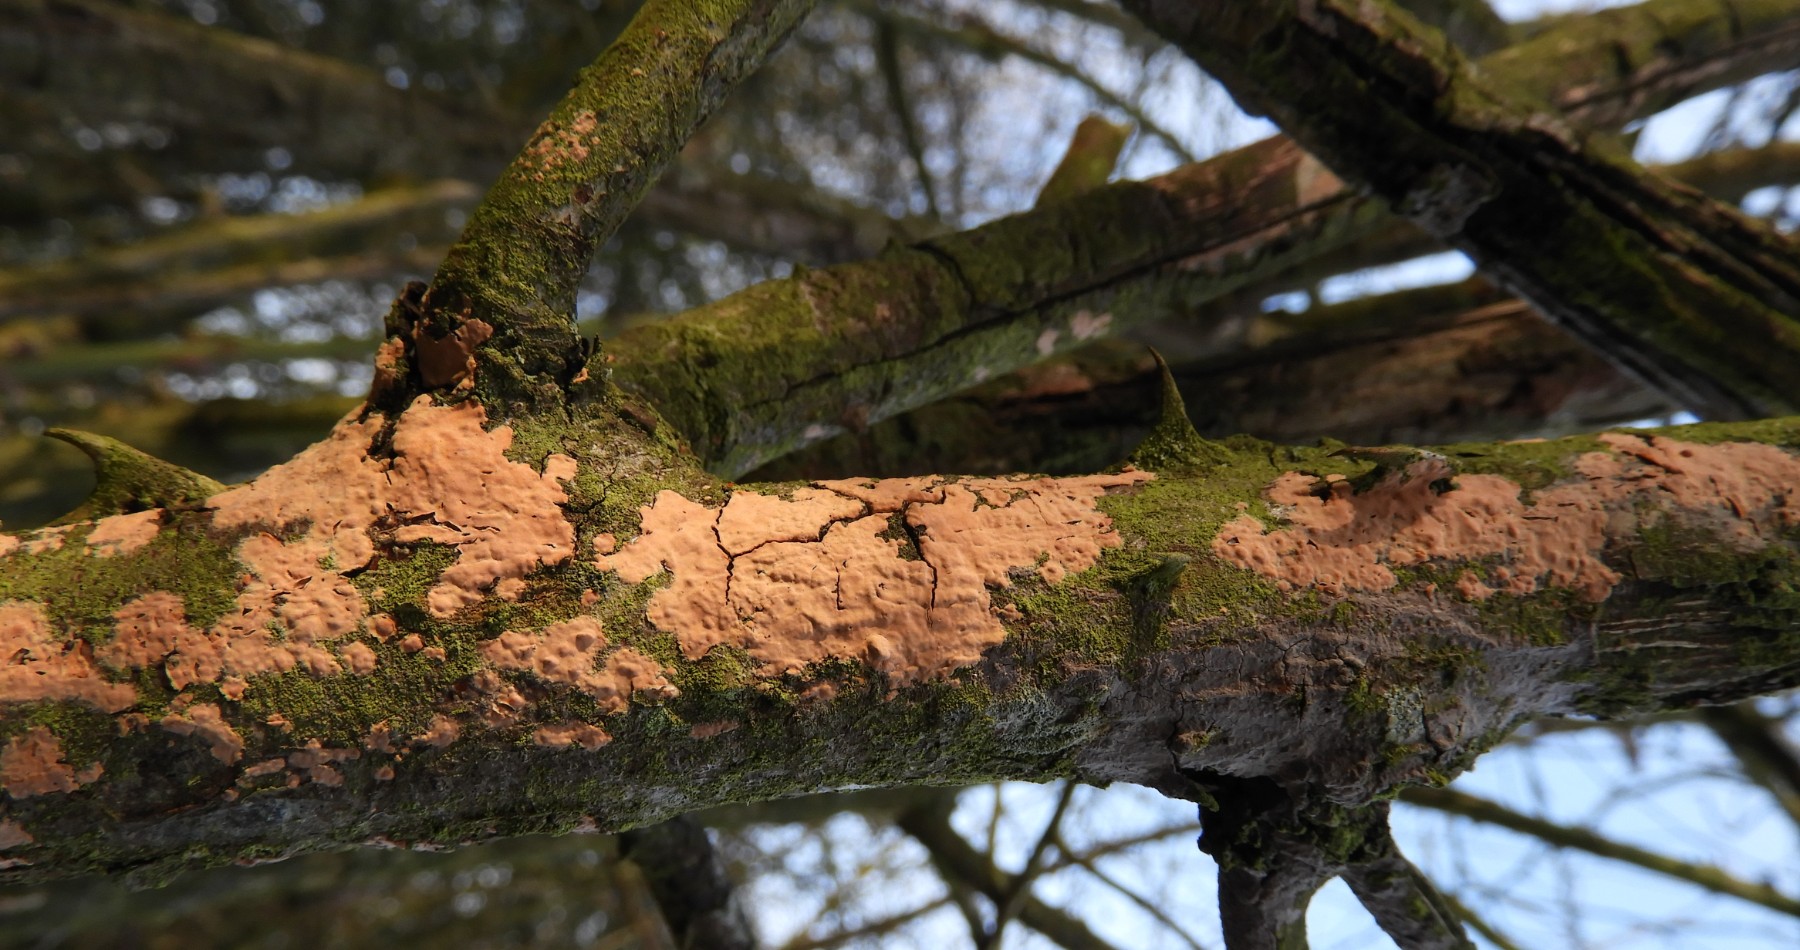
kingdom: Fungi
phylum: Basidiomycota
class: Agaricomycetes
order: Russulales
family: Peniophoraceae
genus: Peniophora
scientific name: Peniophora incarnata
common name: laksefarvet voksskind
